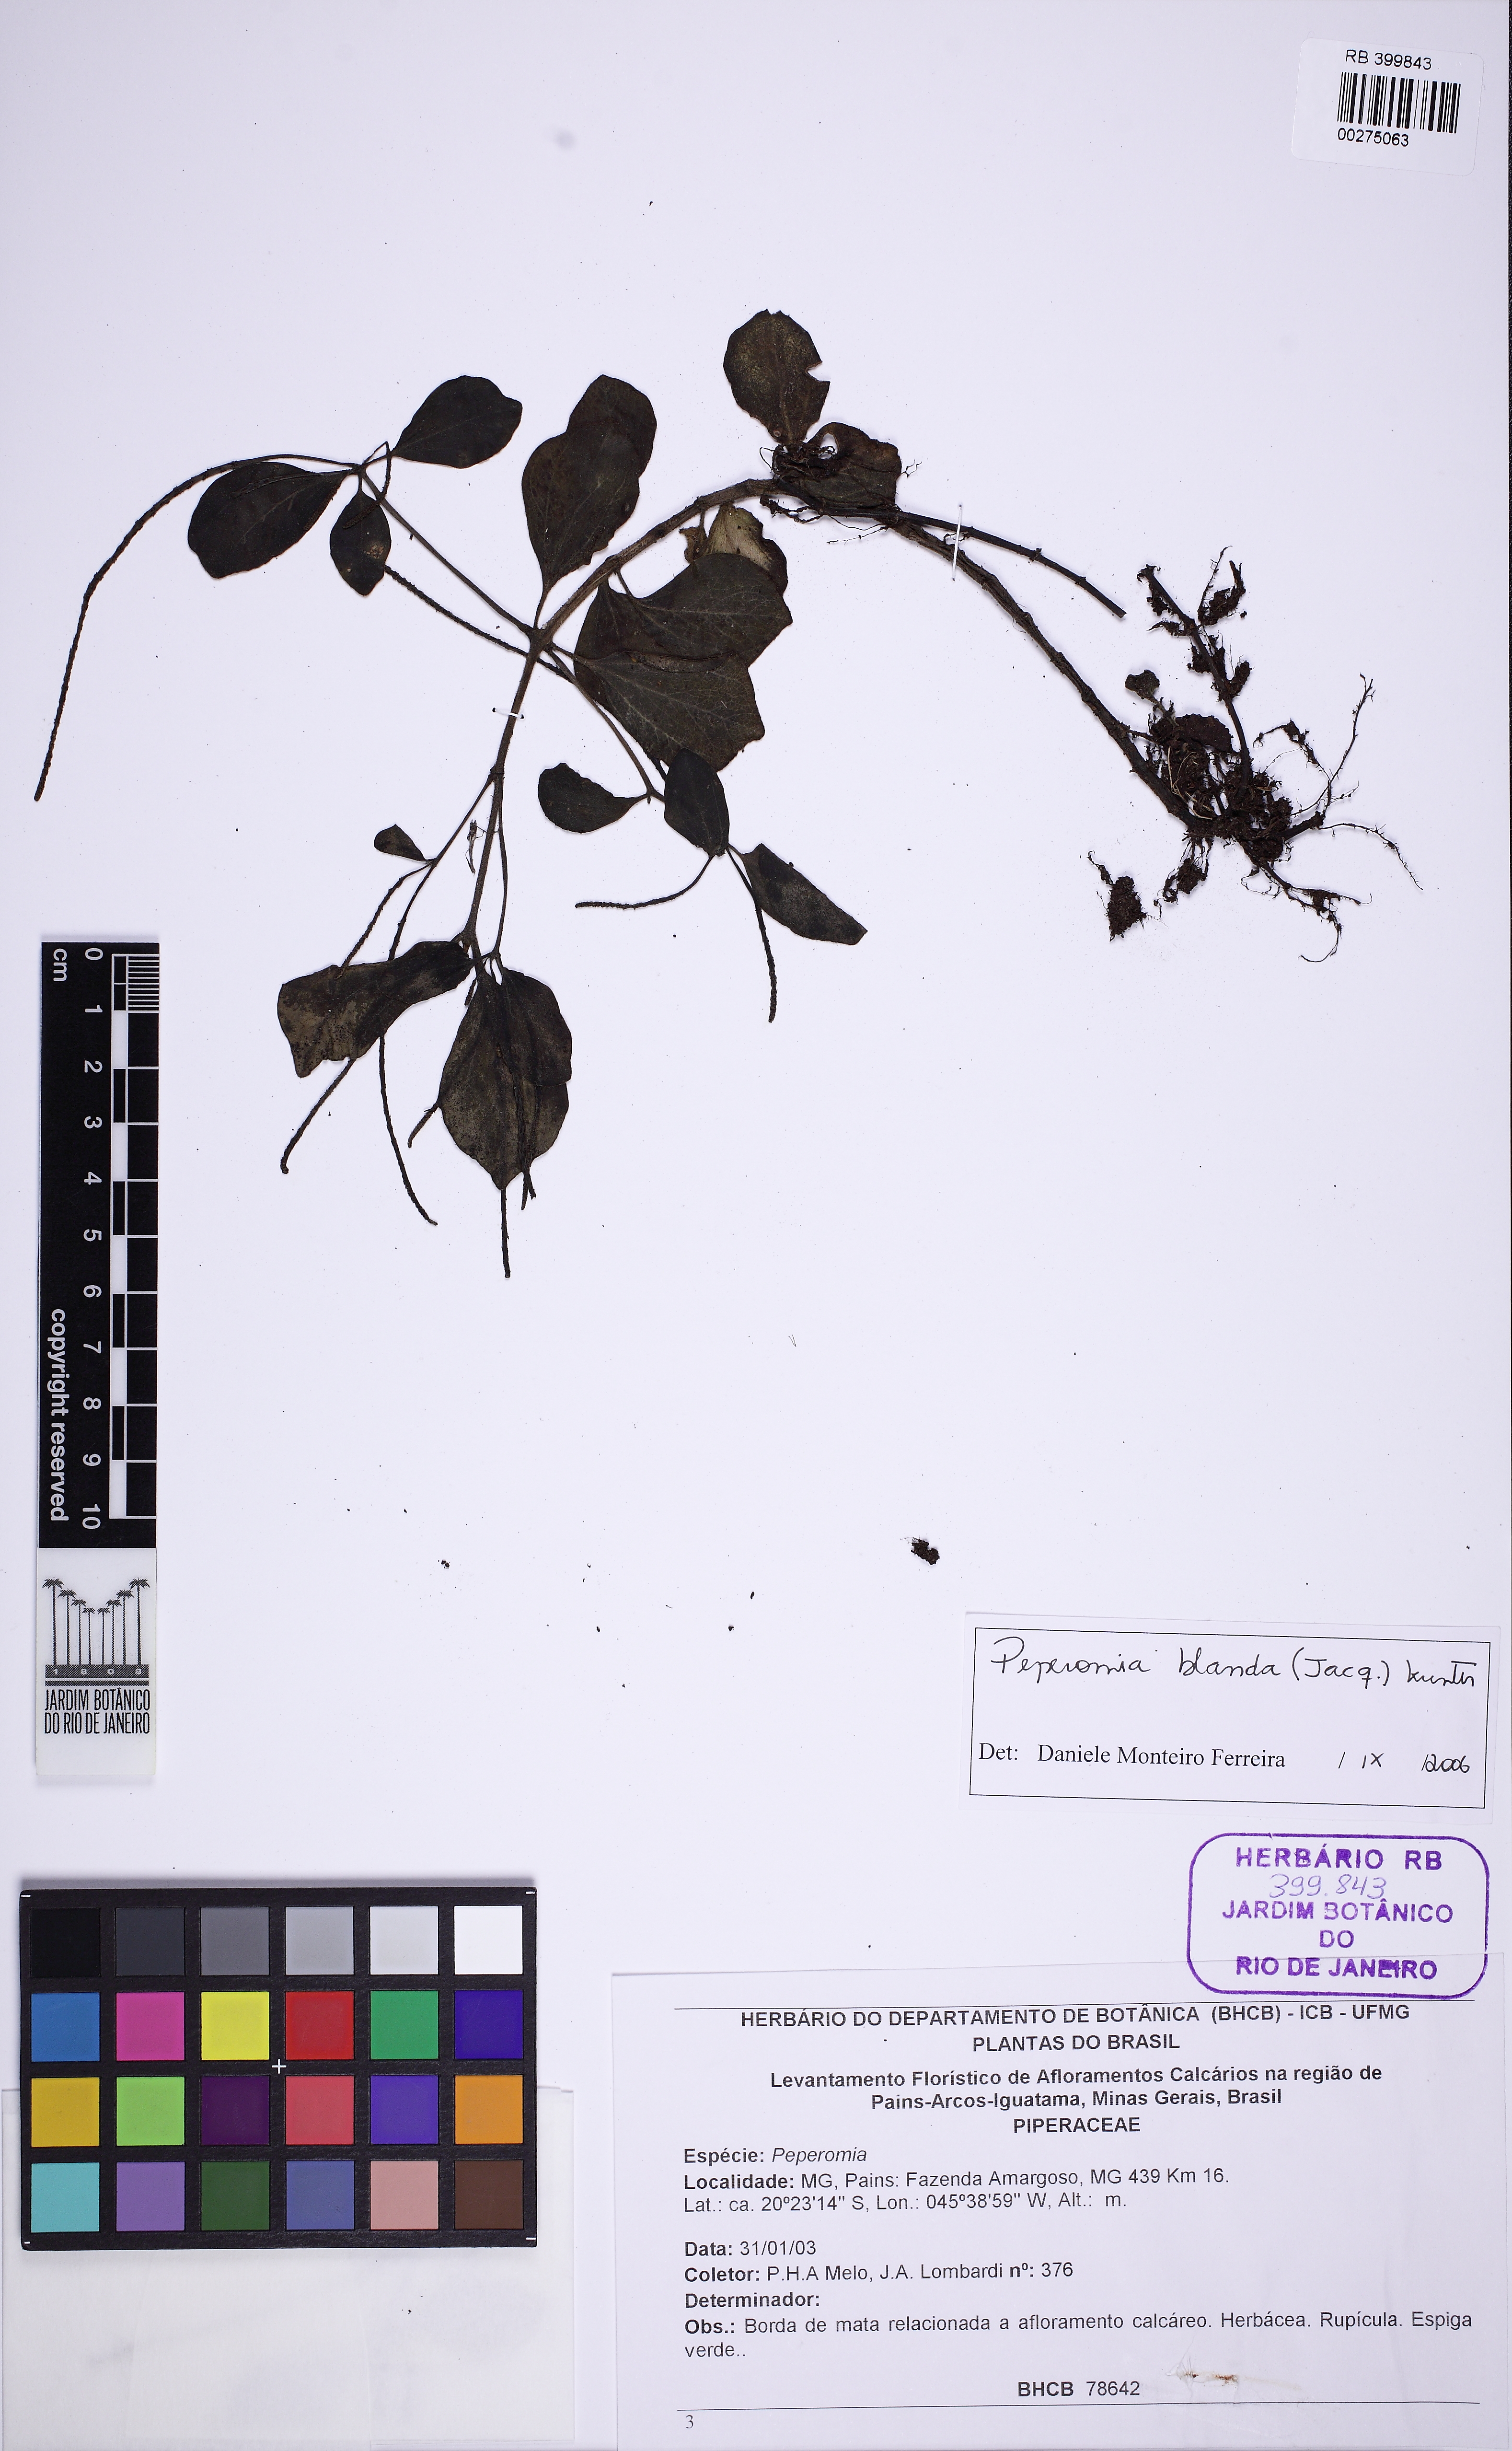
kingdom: Plantae
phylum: Tracheophyta
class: Magnoliopsida
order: Piperales
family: Piperaceae
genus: Peperomia
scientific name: Peperomia blanda
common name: Arid-land peperomia
